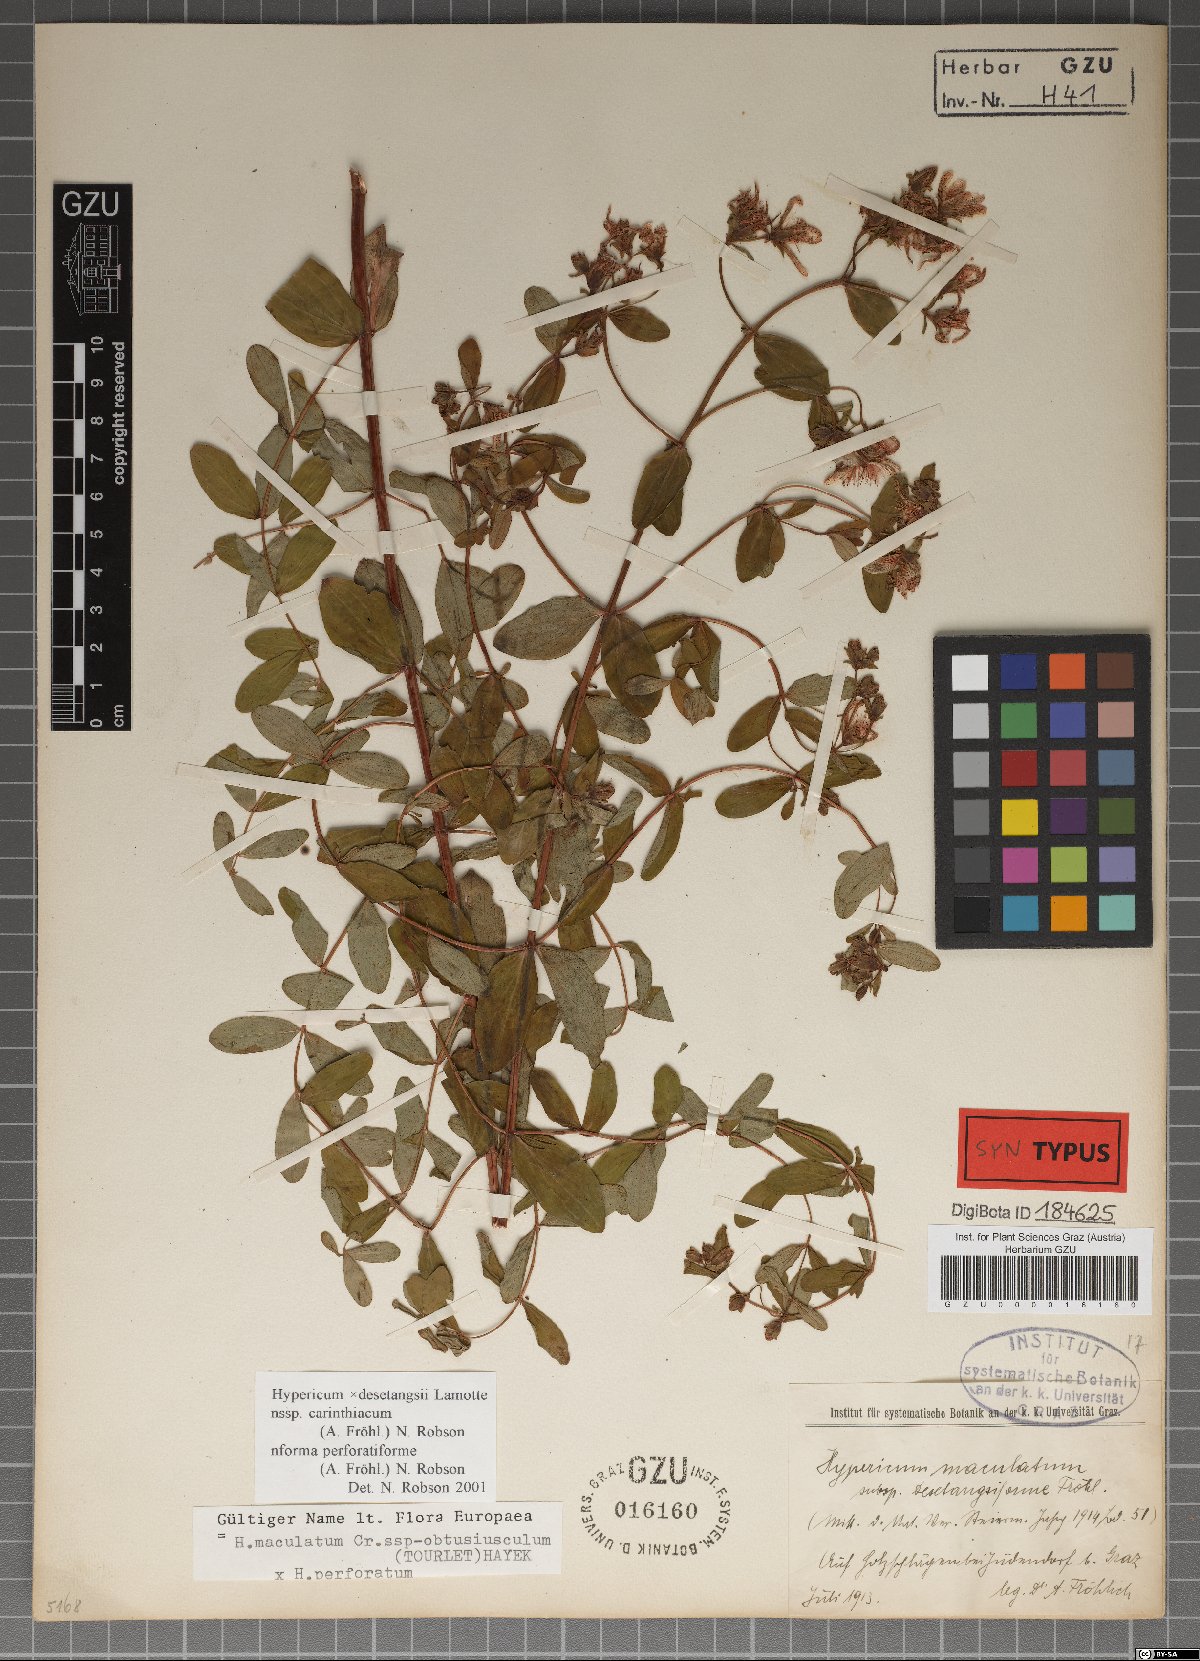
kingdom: Plantae
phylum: Tracheophyta
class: Magnoliopsida
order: Malpighiales
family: Hypericaceae
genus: Hypericum
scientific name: Hypericum carinthiacum
